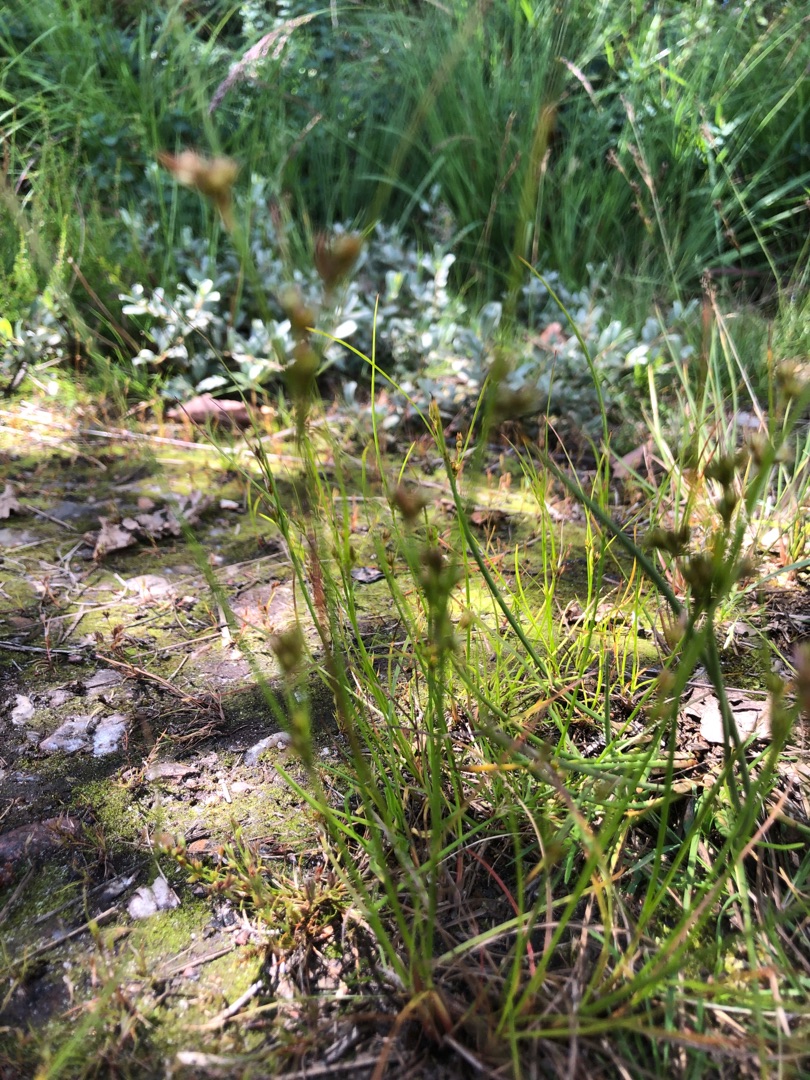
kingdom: Plantae
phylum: Tracheophyta
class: Liliopsida
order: Poales
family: Juncaceae
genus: Juncus
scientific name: Juncus tenuis
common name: Tue-siv
